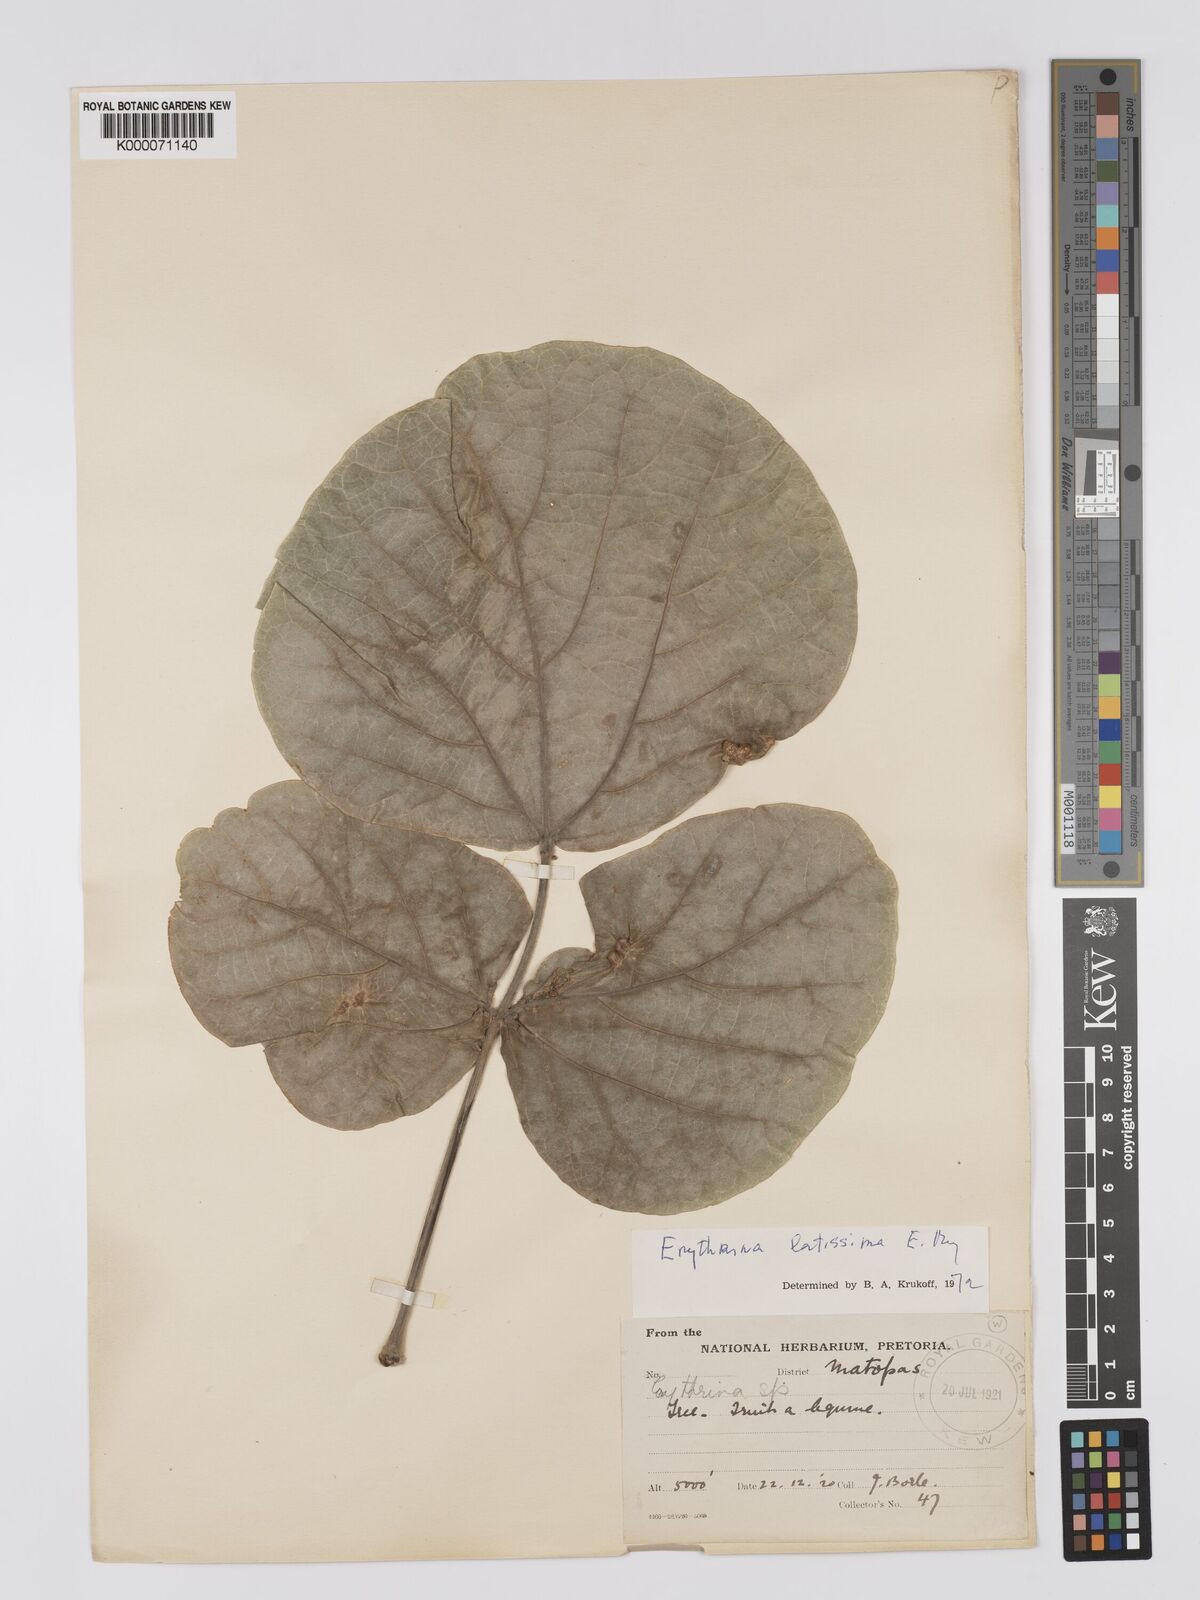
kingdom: Plantae
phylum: Tracheophyta
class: Magnoliopsida
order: Fabales
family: Fabaceae
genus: Erythrina
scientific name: Erythrina latissima
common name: Broad-leaved coral tree
